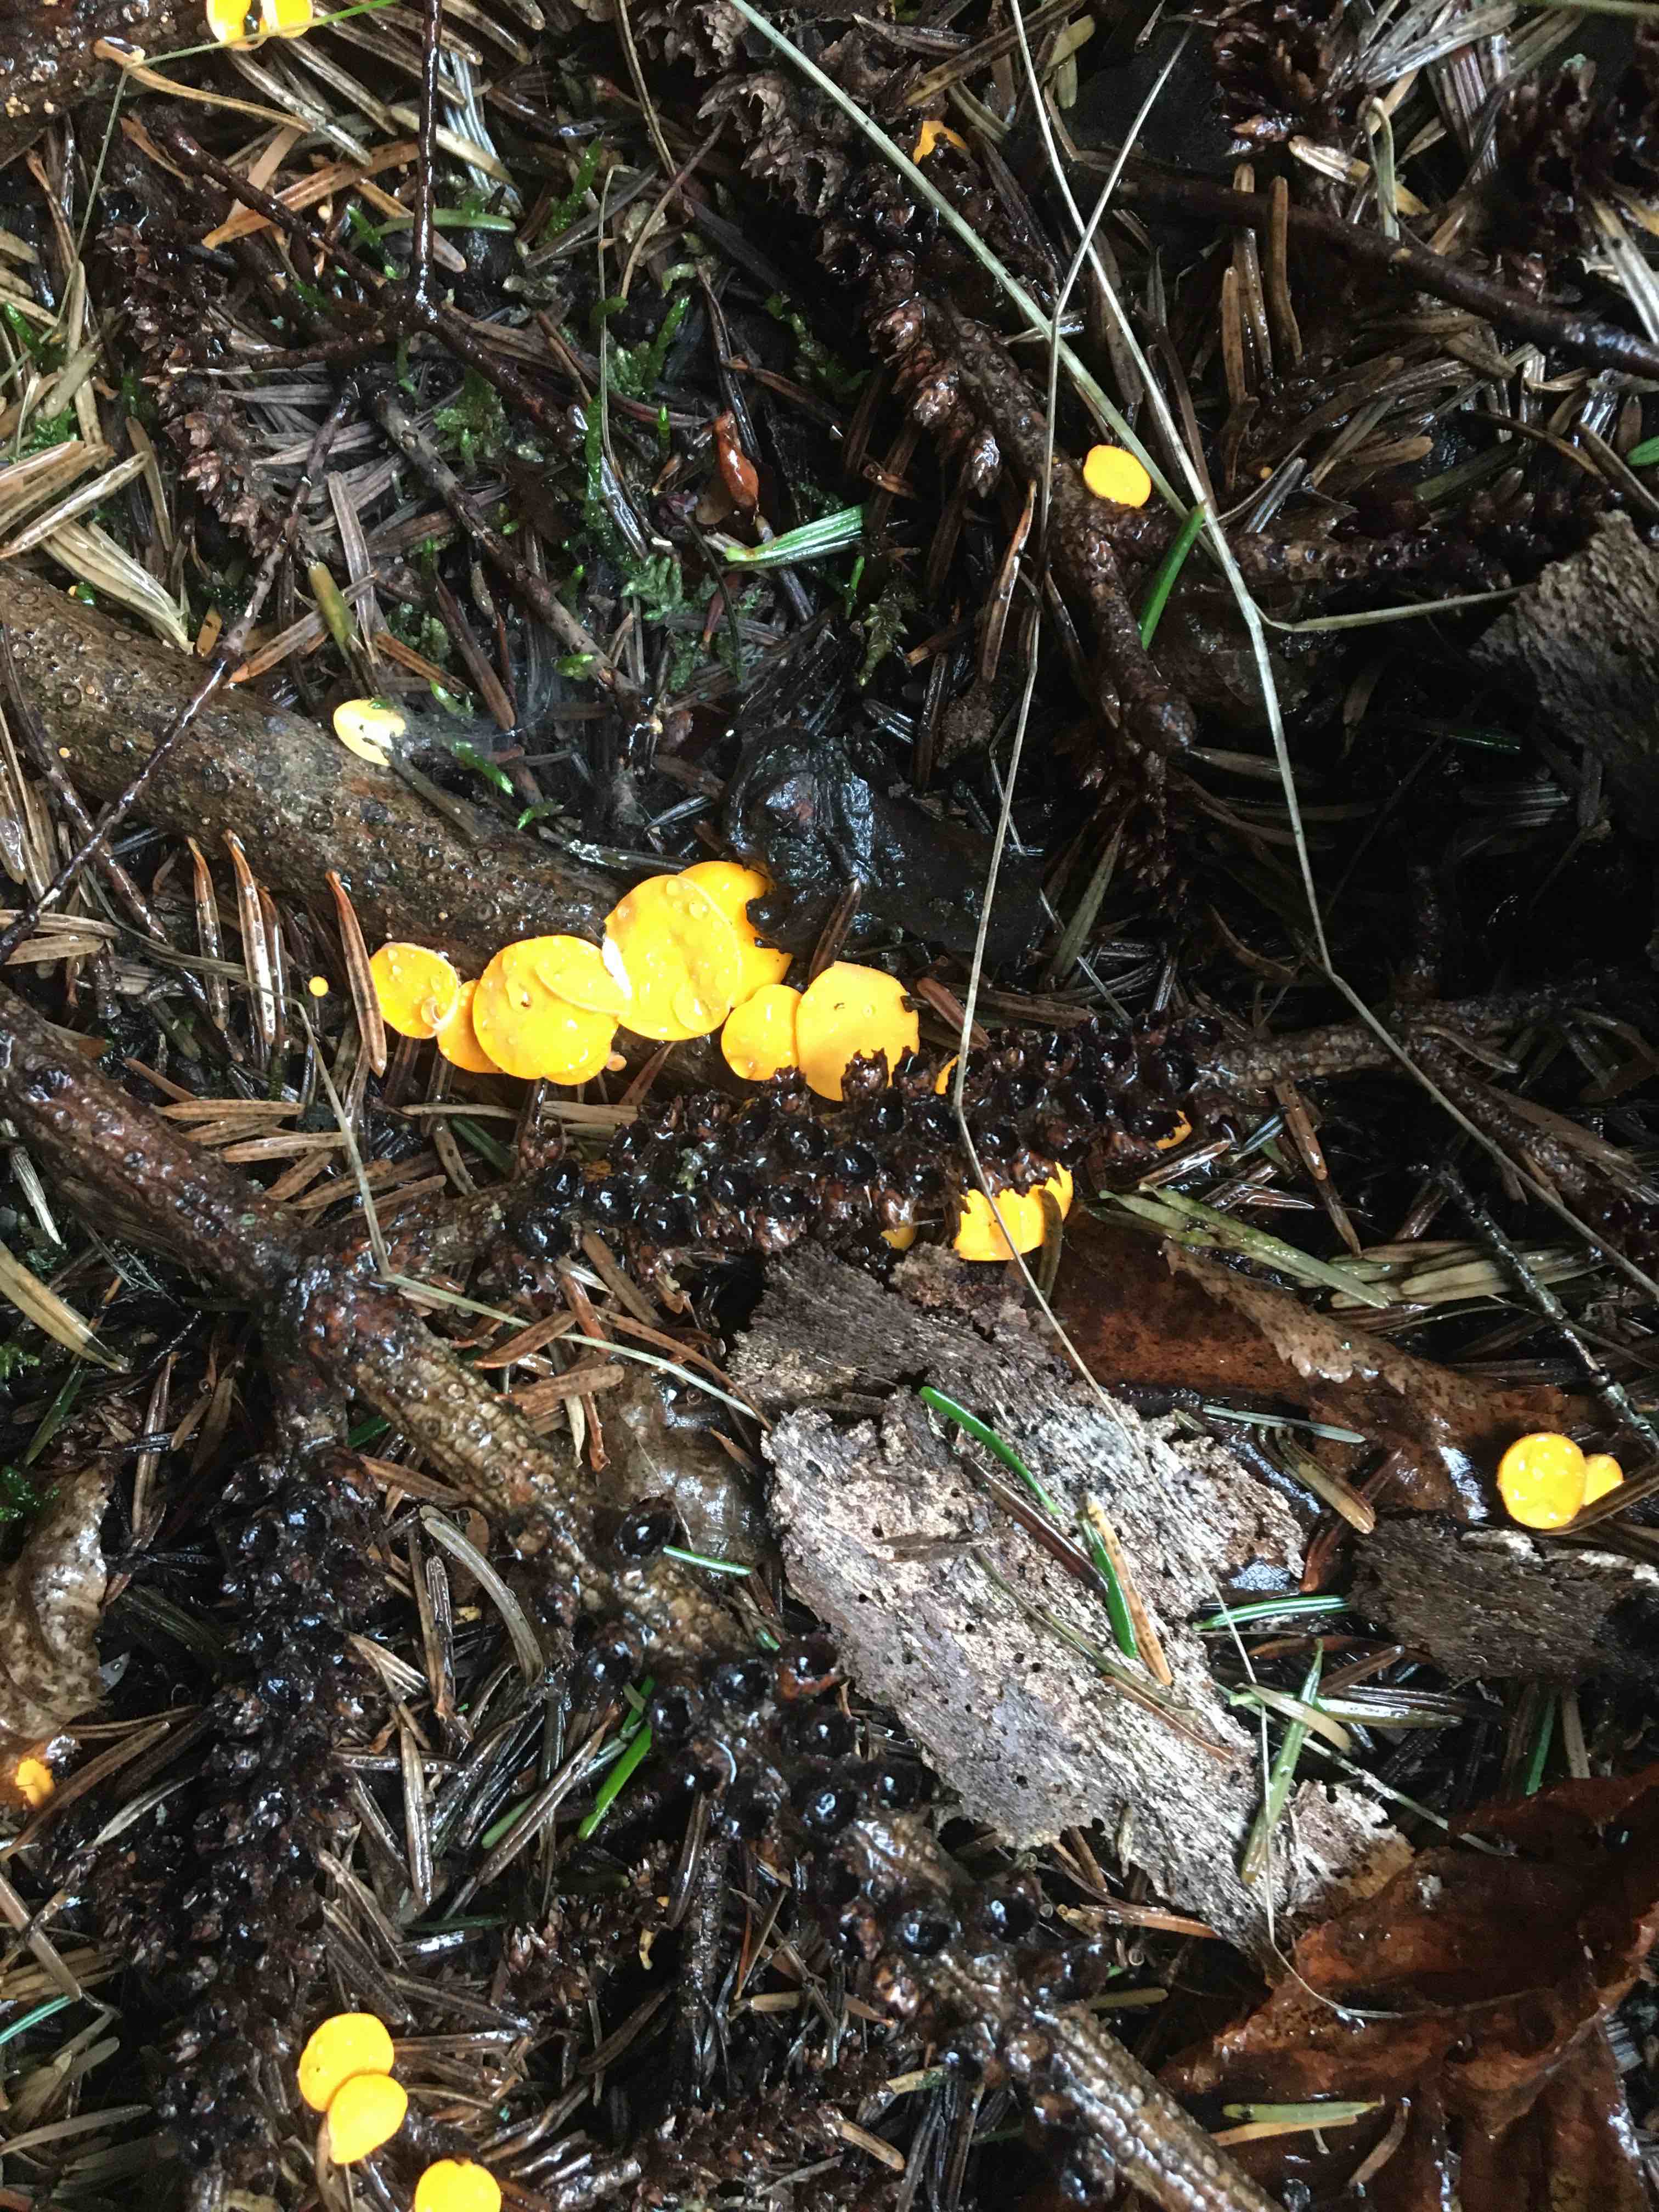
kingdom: Fungi
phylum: Ascomycota
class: Pezizomycetes
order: Pezizales
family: Sarcoscyphaceae
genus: Pithya
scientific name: Pithya vulgaris
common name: stor dukatbæger
